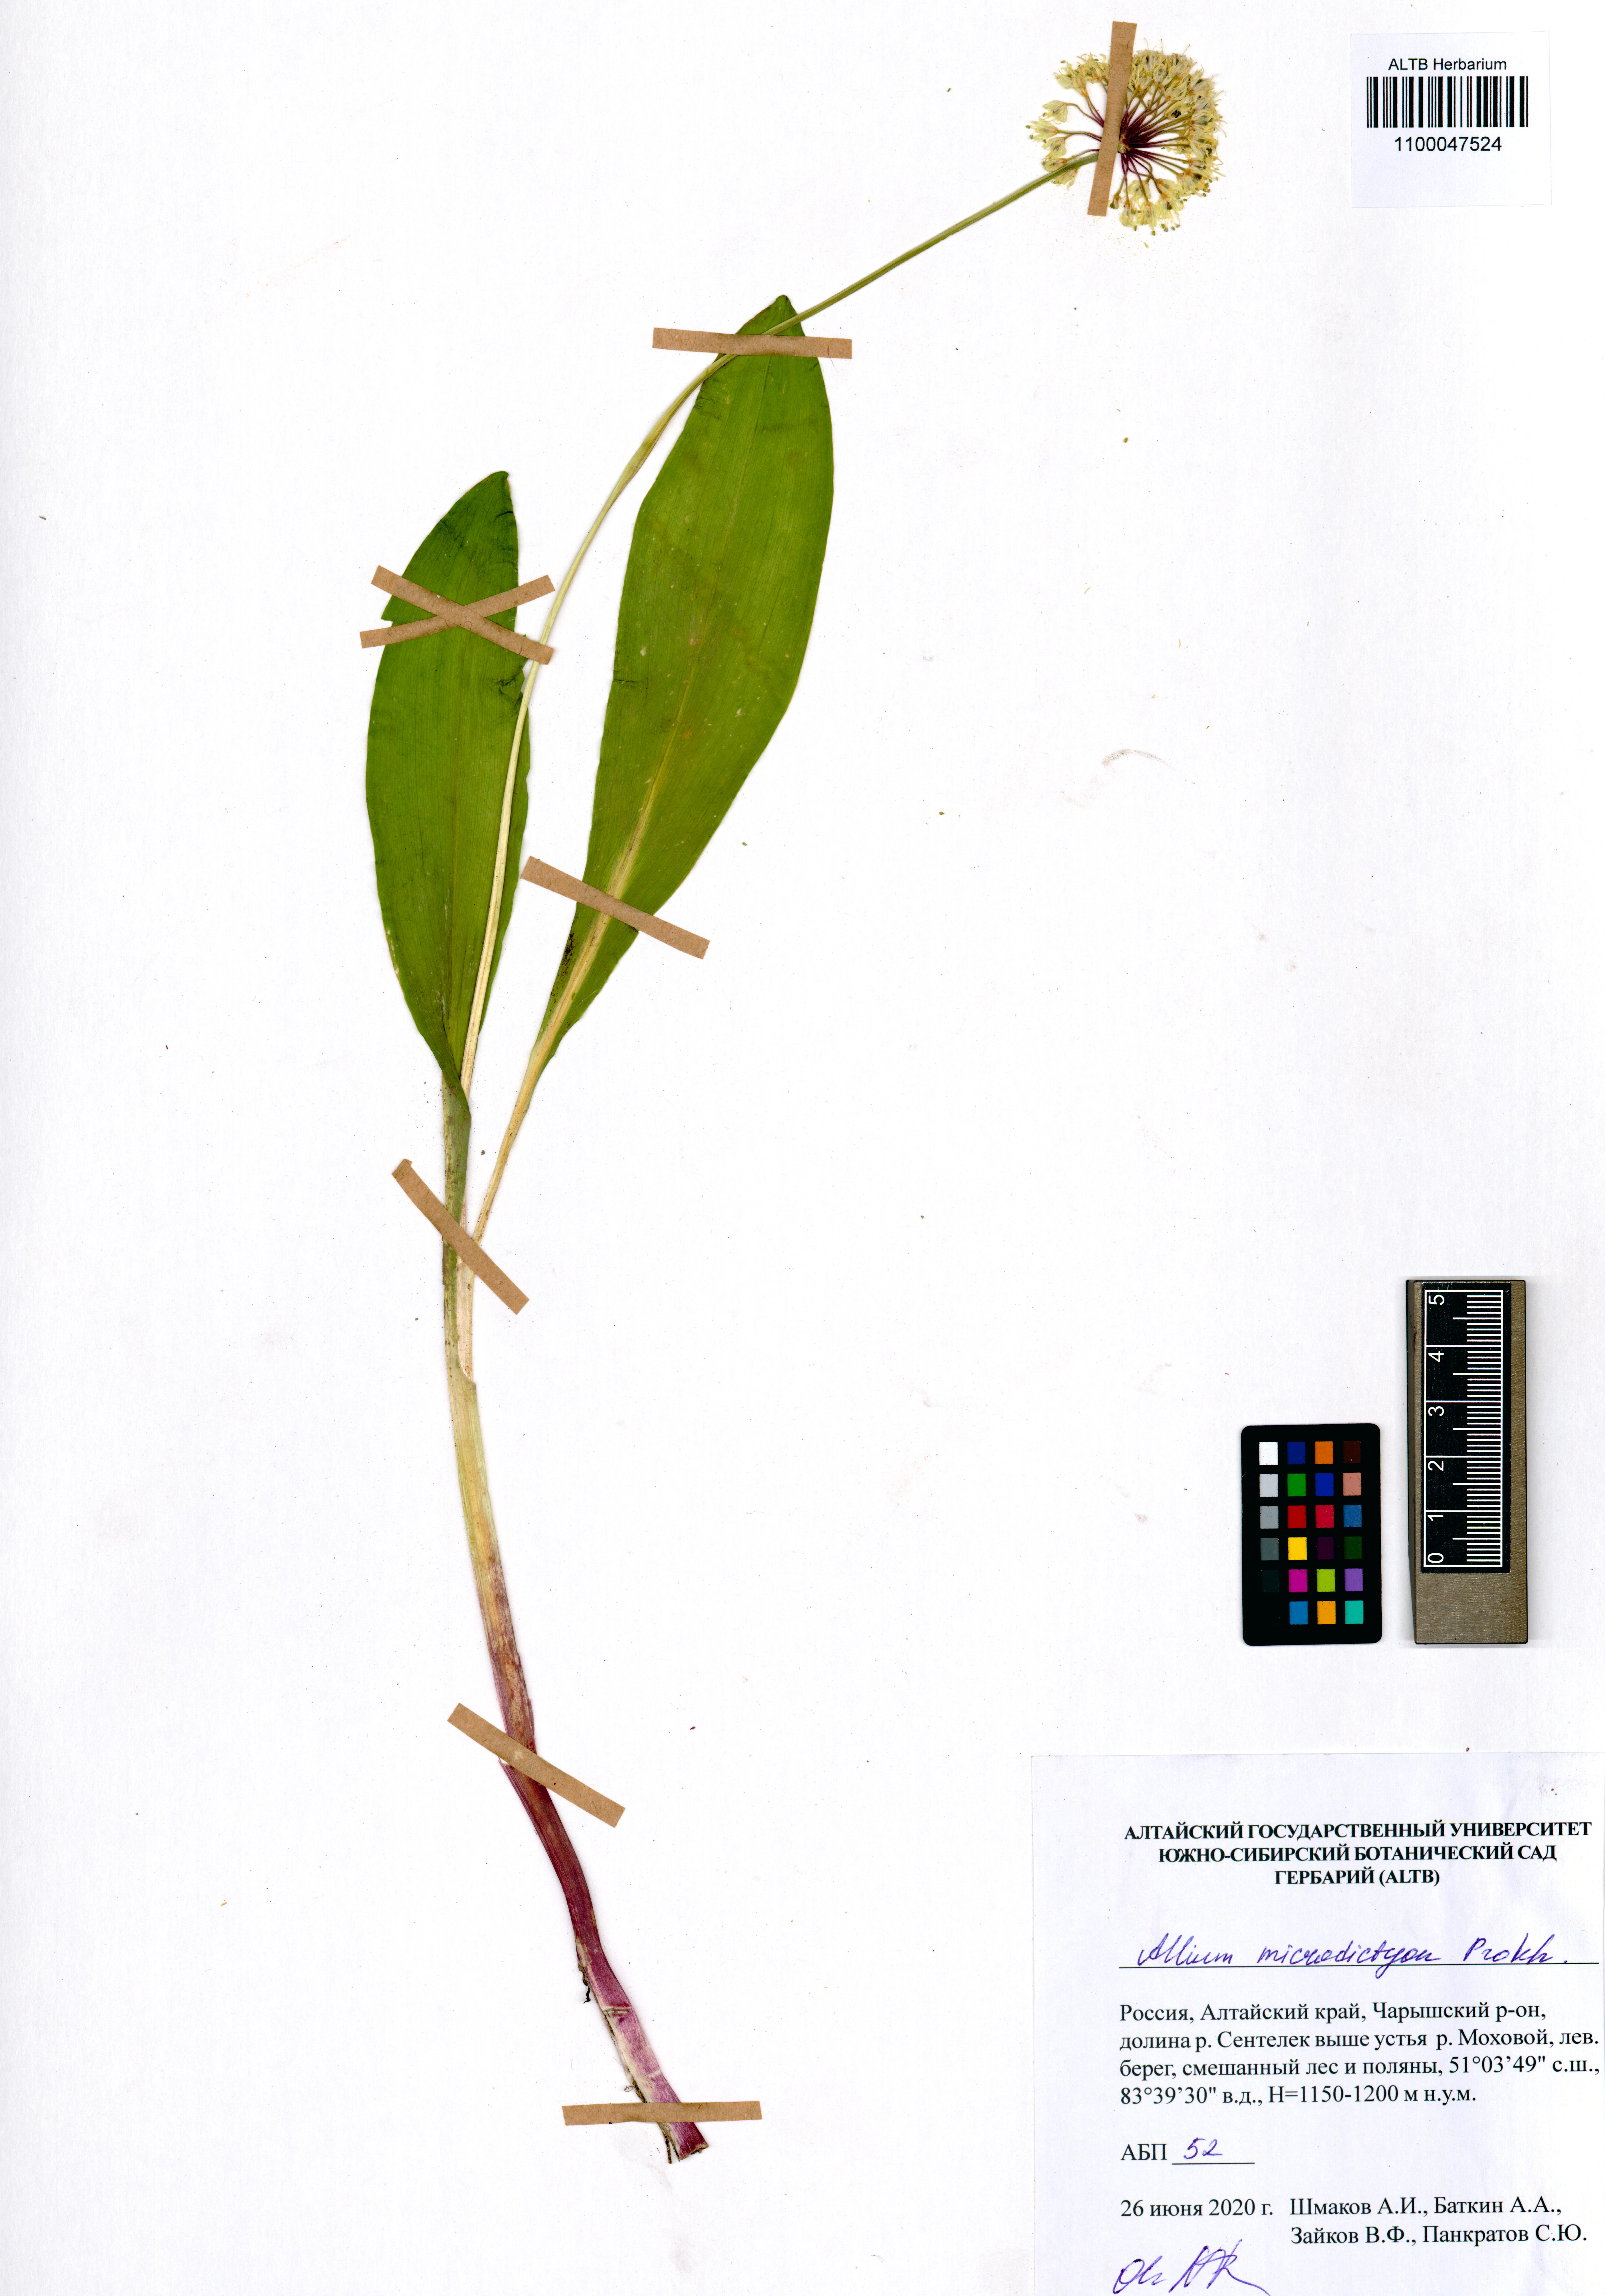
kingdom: Plantae
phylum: Tracheophyta
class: Liliopsida
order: Asparagales
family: Amaryllidaceae
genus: Allium
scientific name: Allium microdictyon
